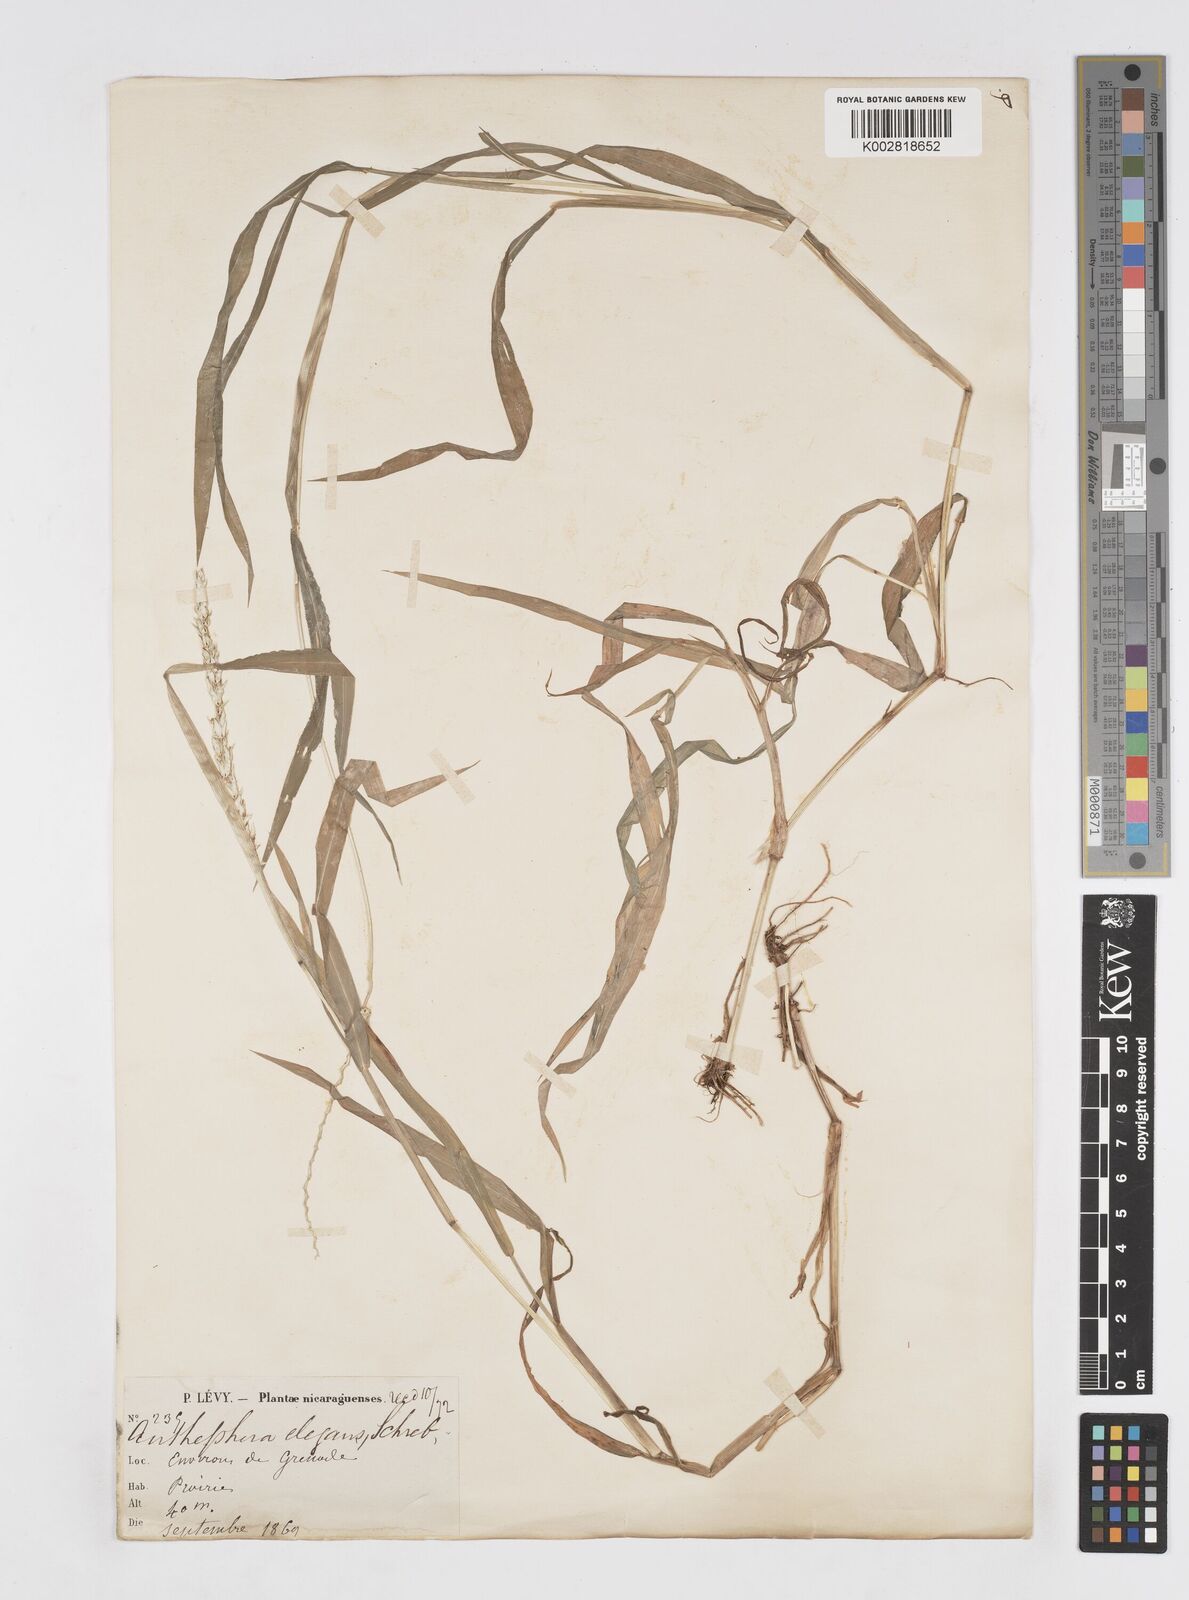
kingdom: Plantae
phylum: Tracheophyta
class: Liliopsida
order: Poales
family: Poaceae
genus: Anthephora
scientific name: Anthephora hermaphrodita
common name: Oldfield grass
